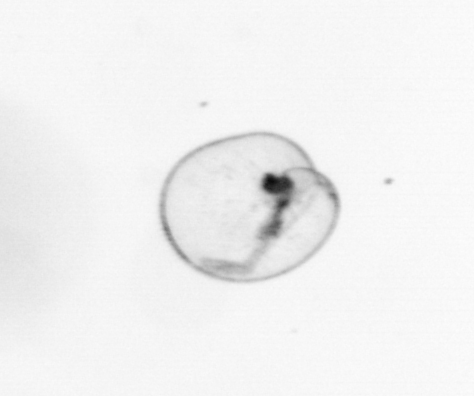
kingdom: Chromista
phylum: Myzozoa
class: Dinophyceae
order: Noctilucales
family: Noctilucaceae
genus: Noctiluca
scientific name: Noctiluca scintillans
